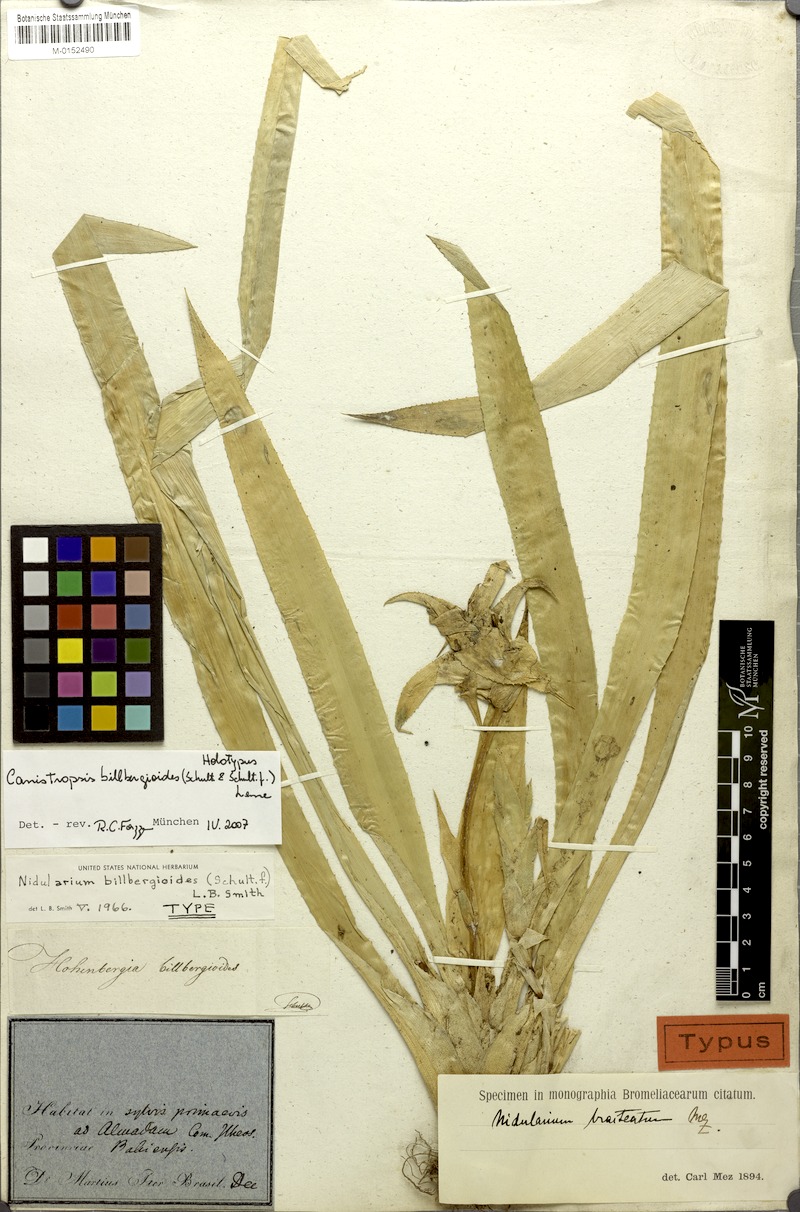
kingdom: Plantae
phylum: Tracheophyta
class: Liliopsida
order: Poales
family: Bromeliaceae
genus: Canistropsis
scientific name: Canistropsis billbergioides
